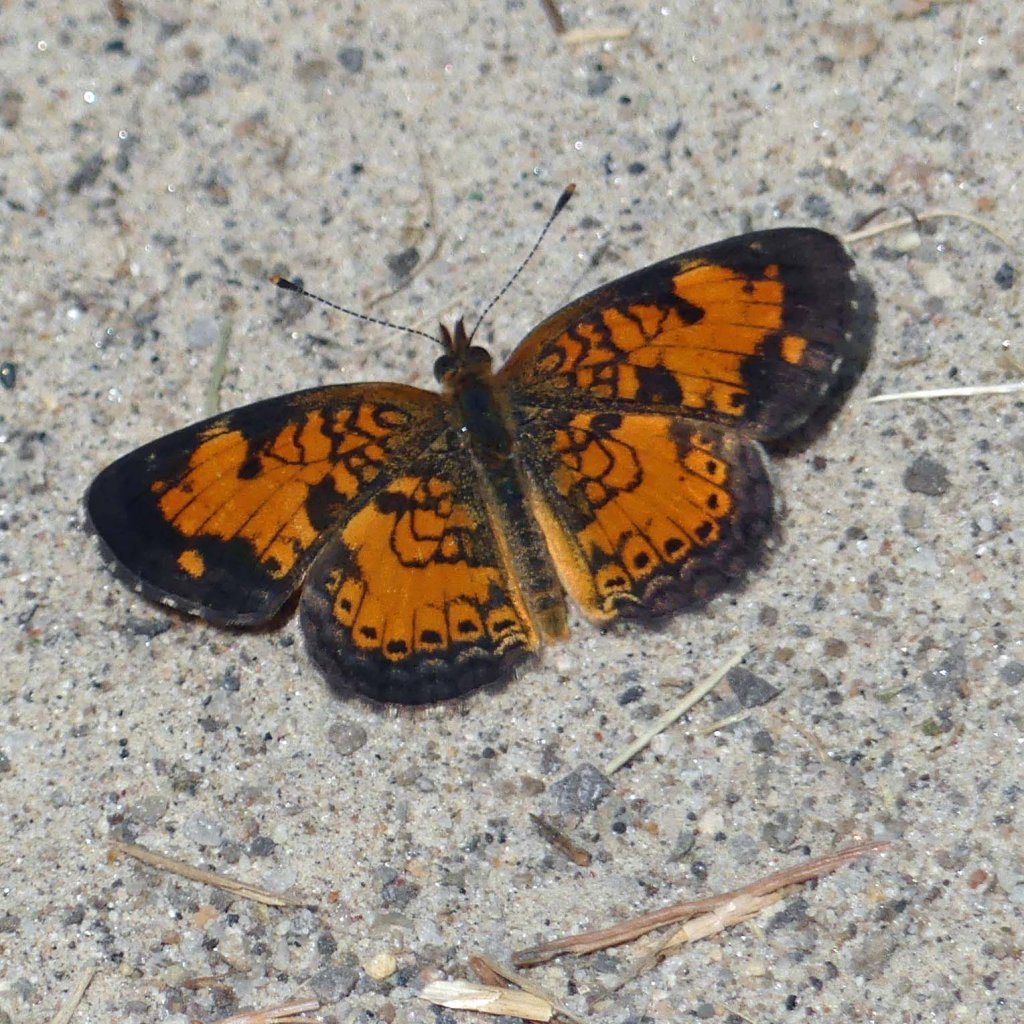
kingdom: Animalia
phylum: Arthropoda
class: Insecta
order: Lepidoptera
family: Nymphalidae
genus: Phyciodes
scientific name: Phyciodes tharos
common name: Pearl Crescent
